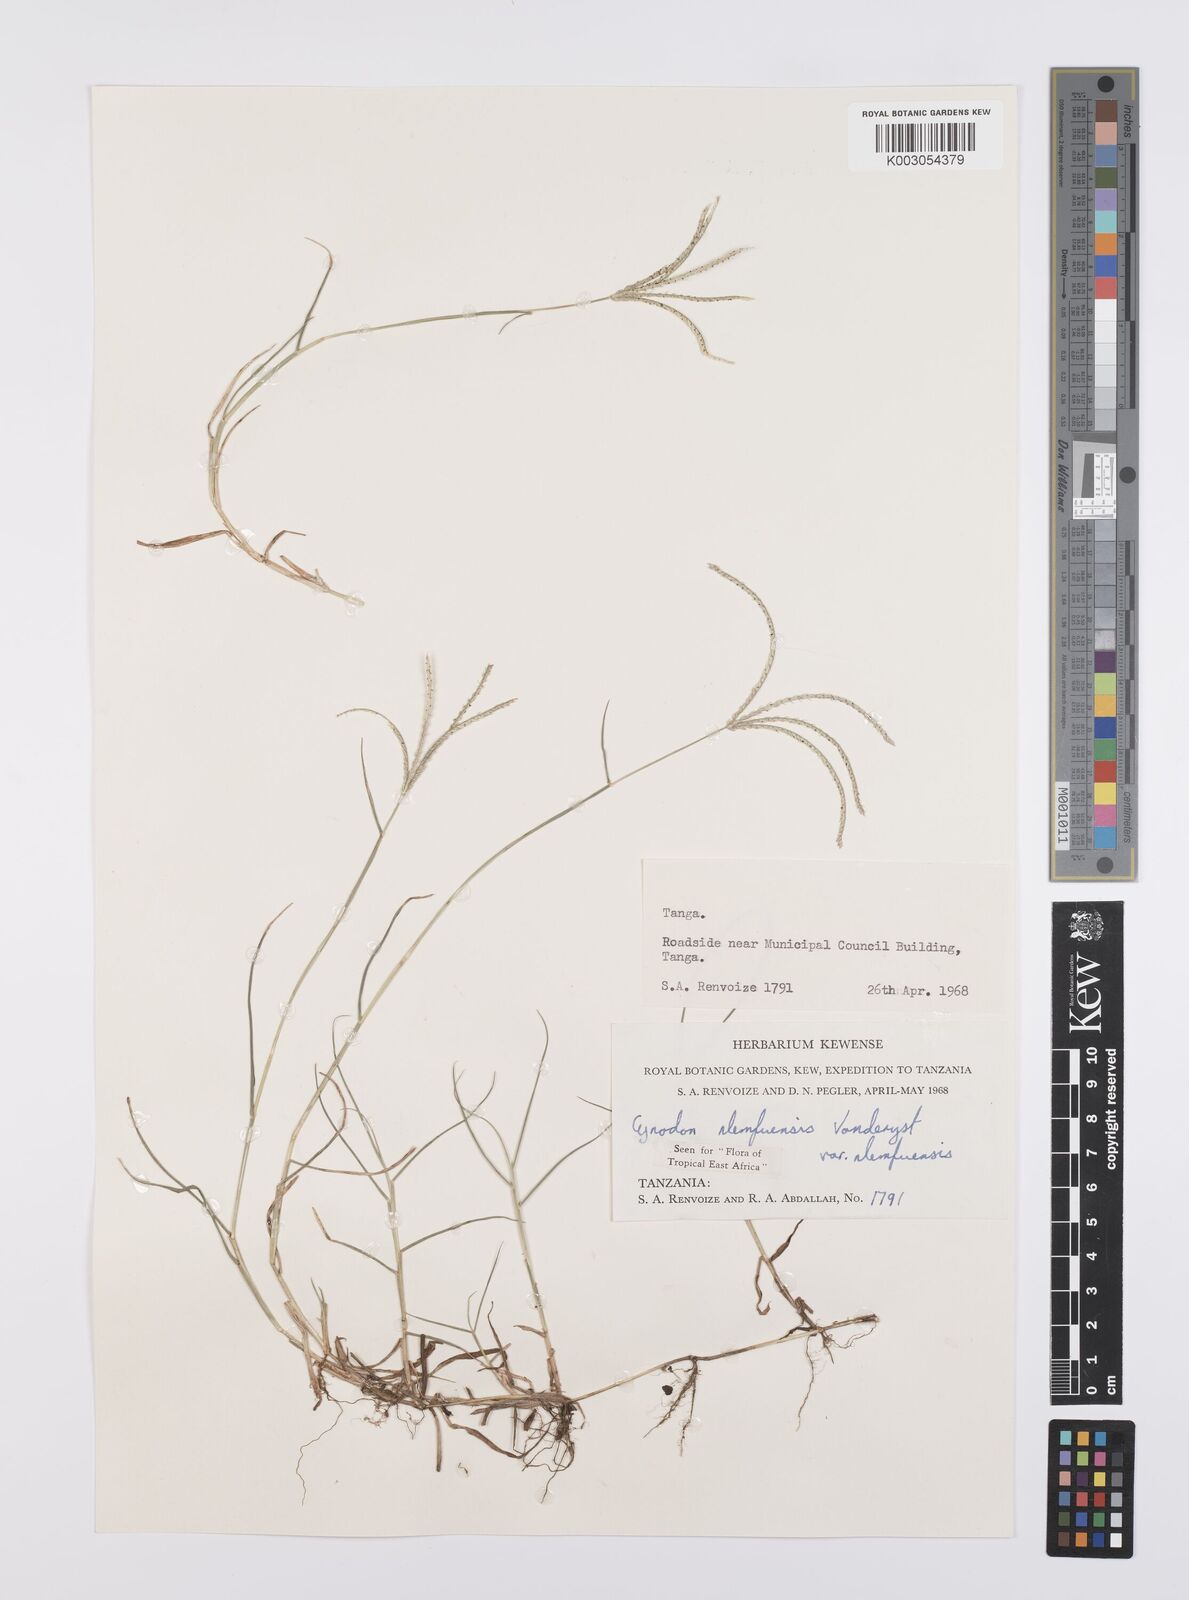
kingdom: Plantae
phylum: Tracheophyta
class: Liliopsida
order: Poales
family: Poaceae
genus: Cynodon
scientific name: Cynodon nlemfuensis
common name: African bermudagrass
